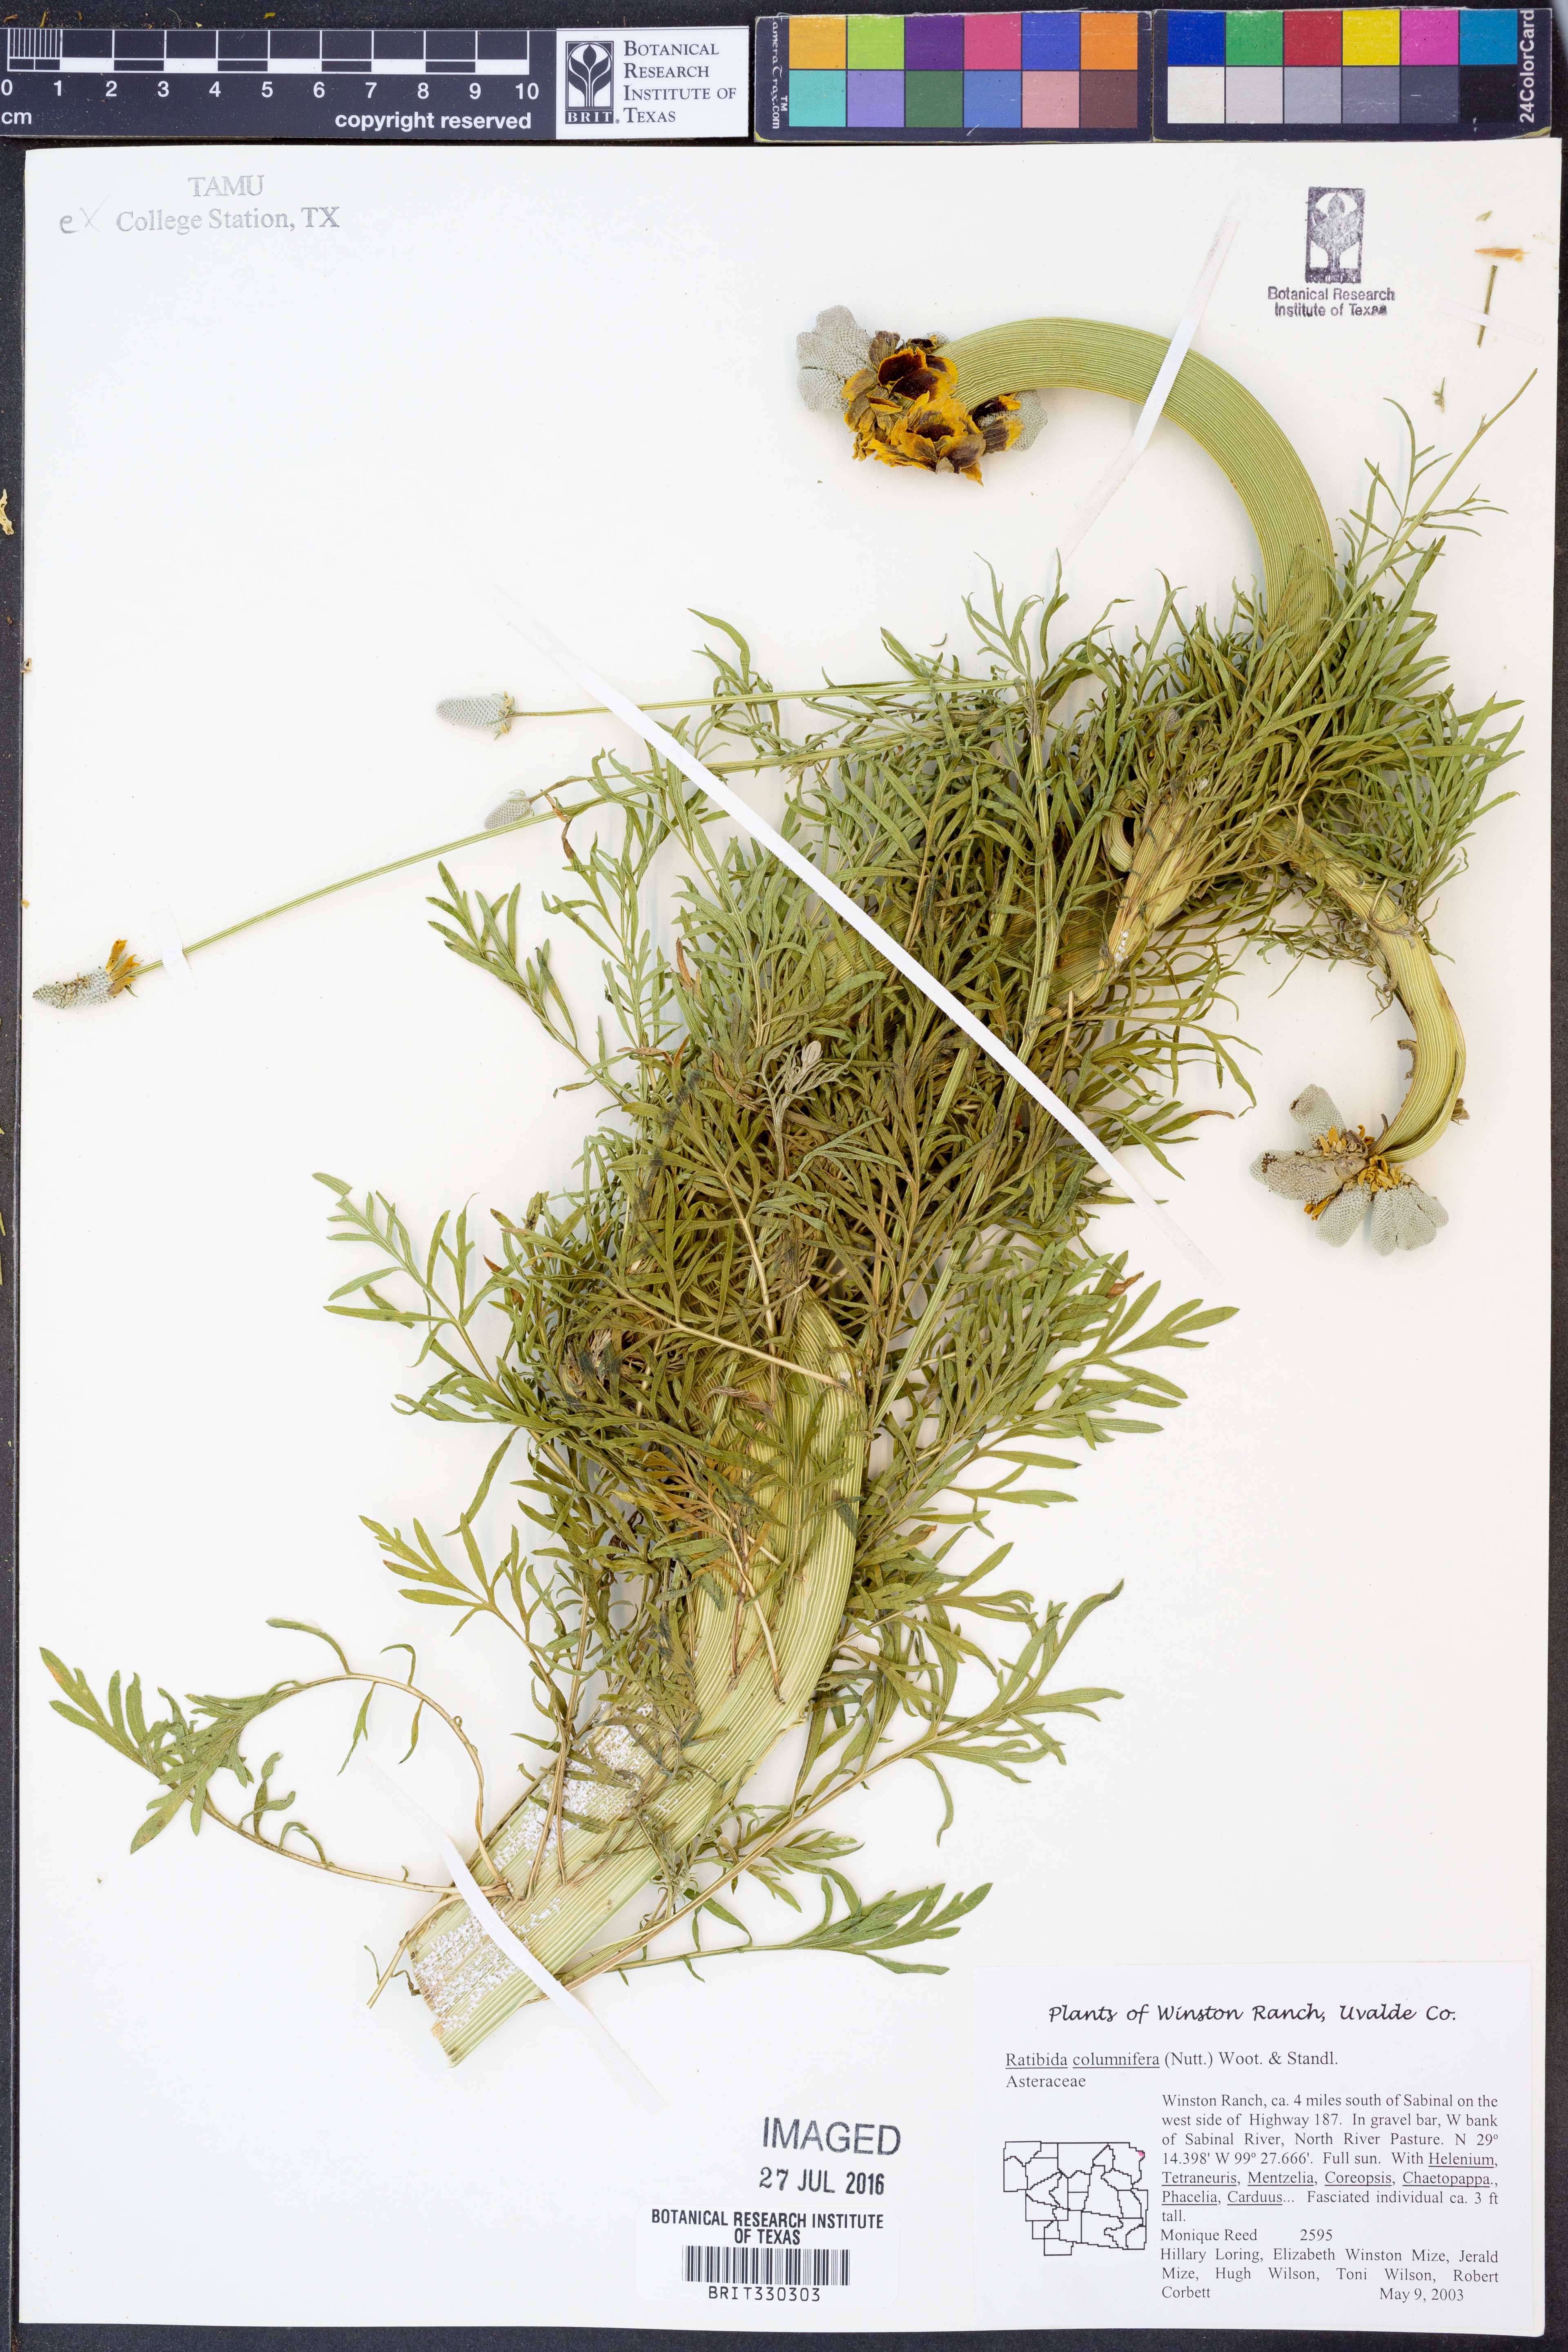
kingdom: Plantae
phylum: Tracheophyta
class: Magnoliopsida
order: Asterales
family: Asteraceae
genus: Ratibida
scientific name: Ratibida columnifera
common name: Prairie coneflower
